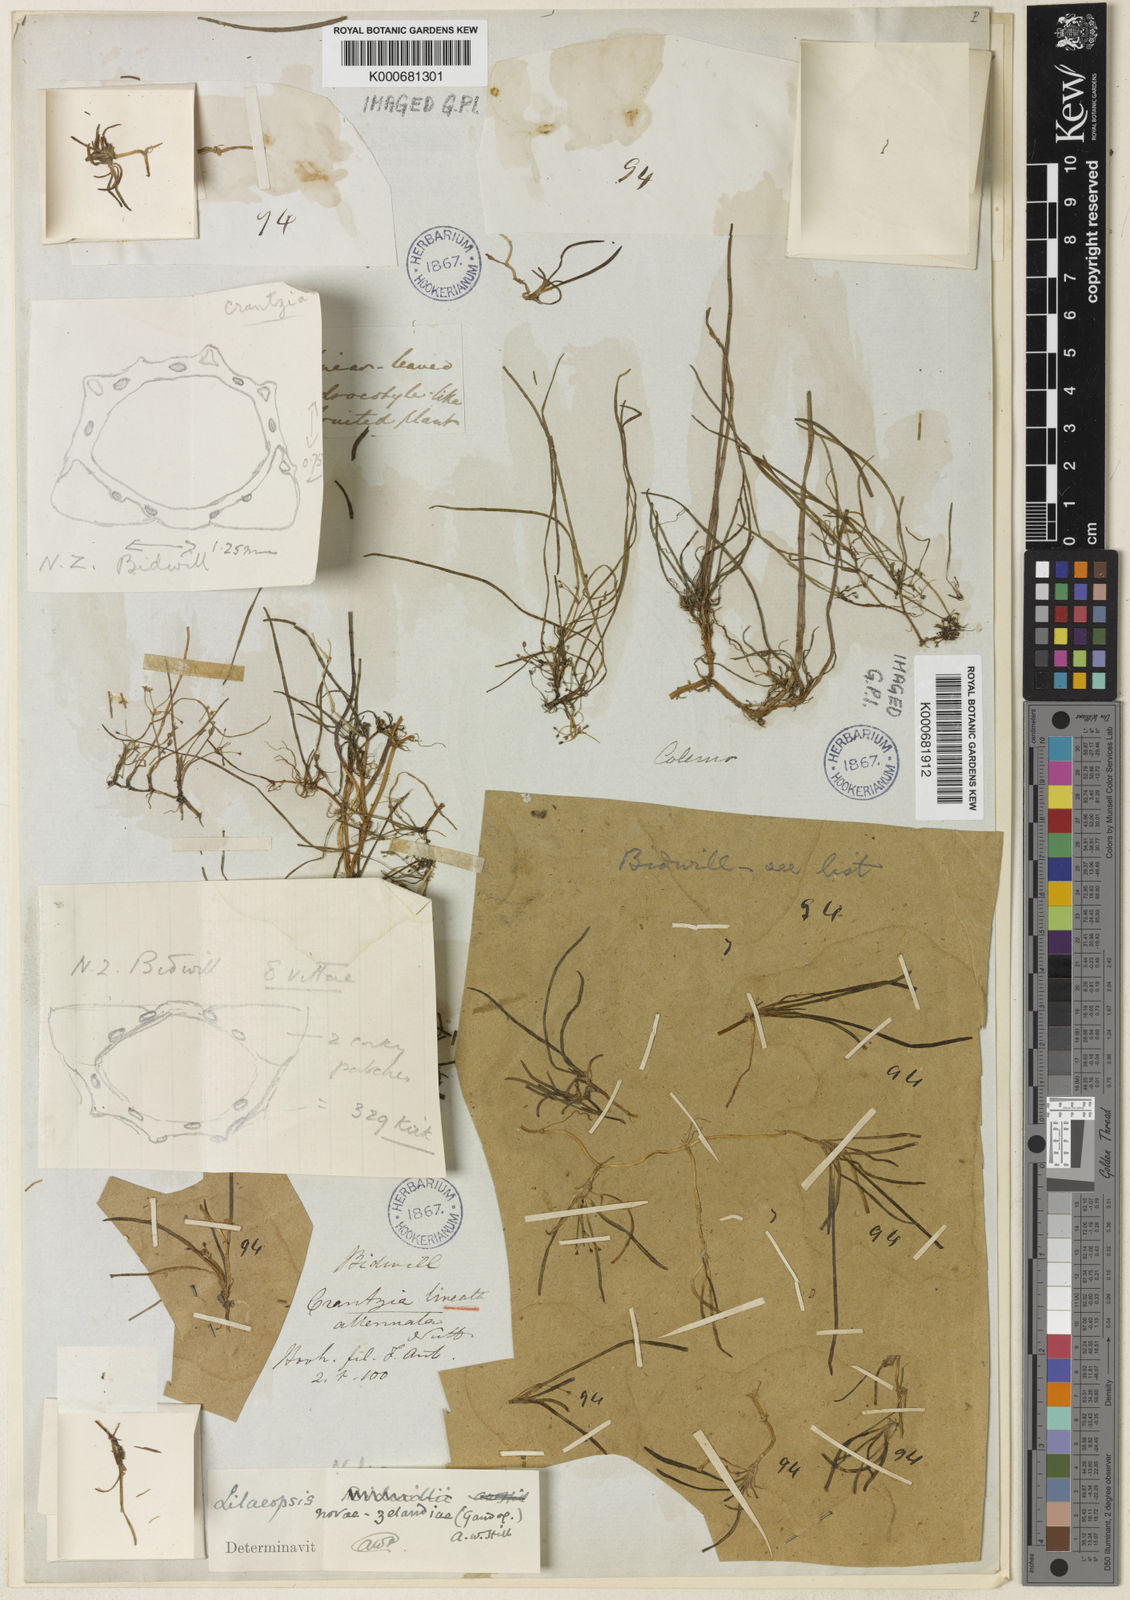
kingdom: Plantae
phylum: Tracheophyta
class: Magnoliopsida
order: Apiales
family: Apiaceae
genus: Lilaeopsis
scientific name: Lilaeopsis novae-zelandiae
